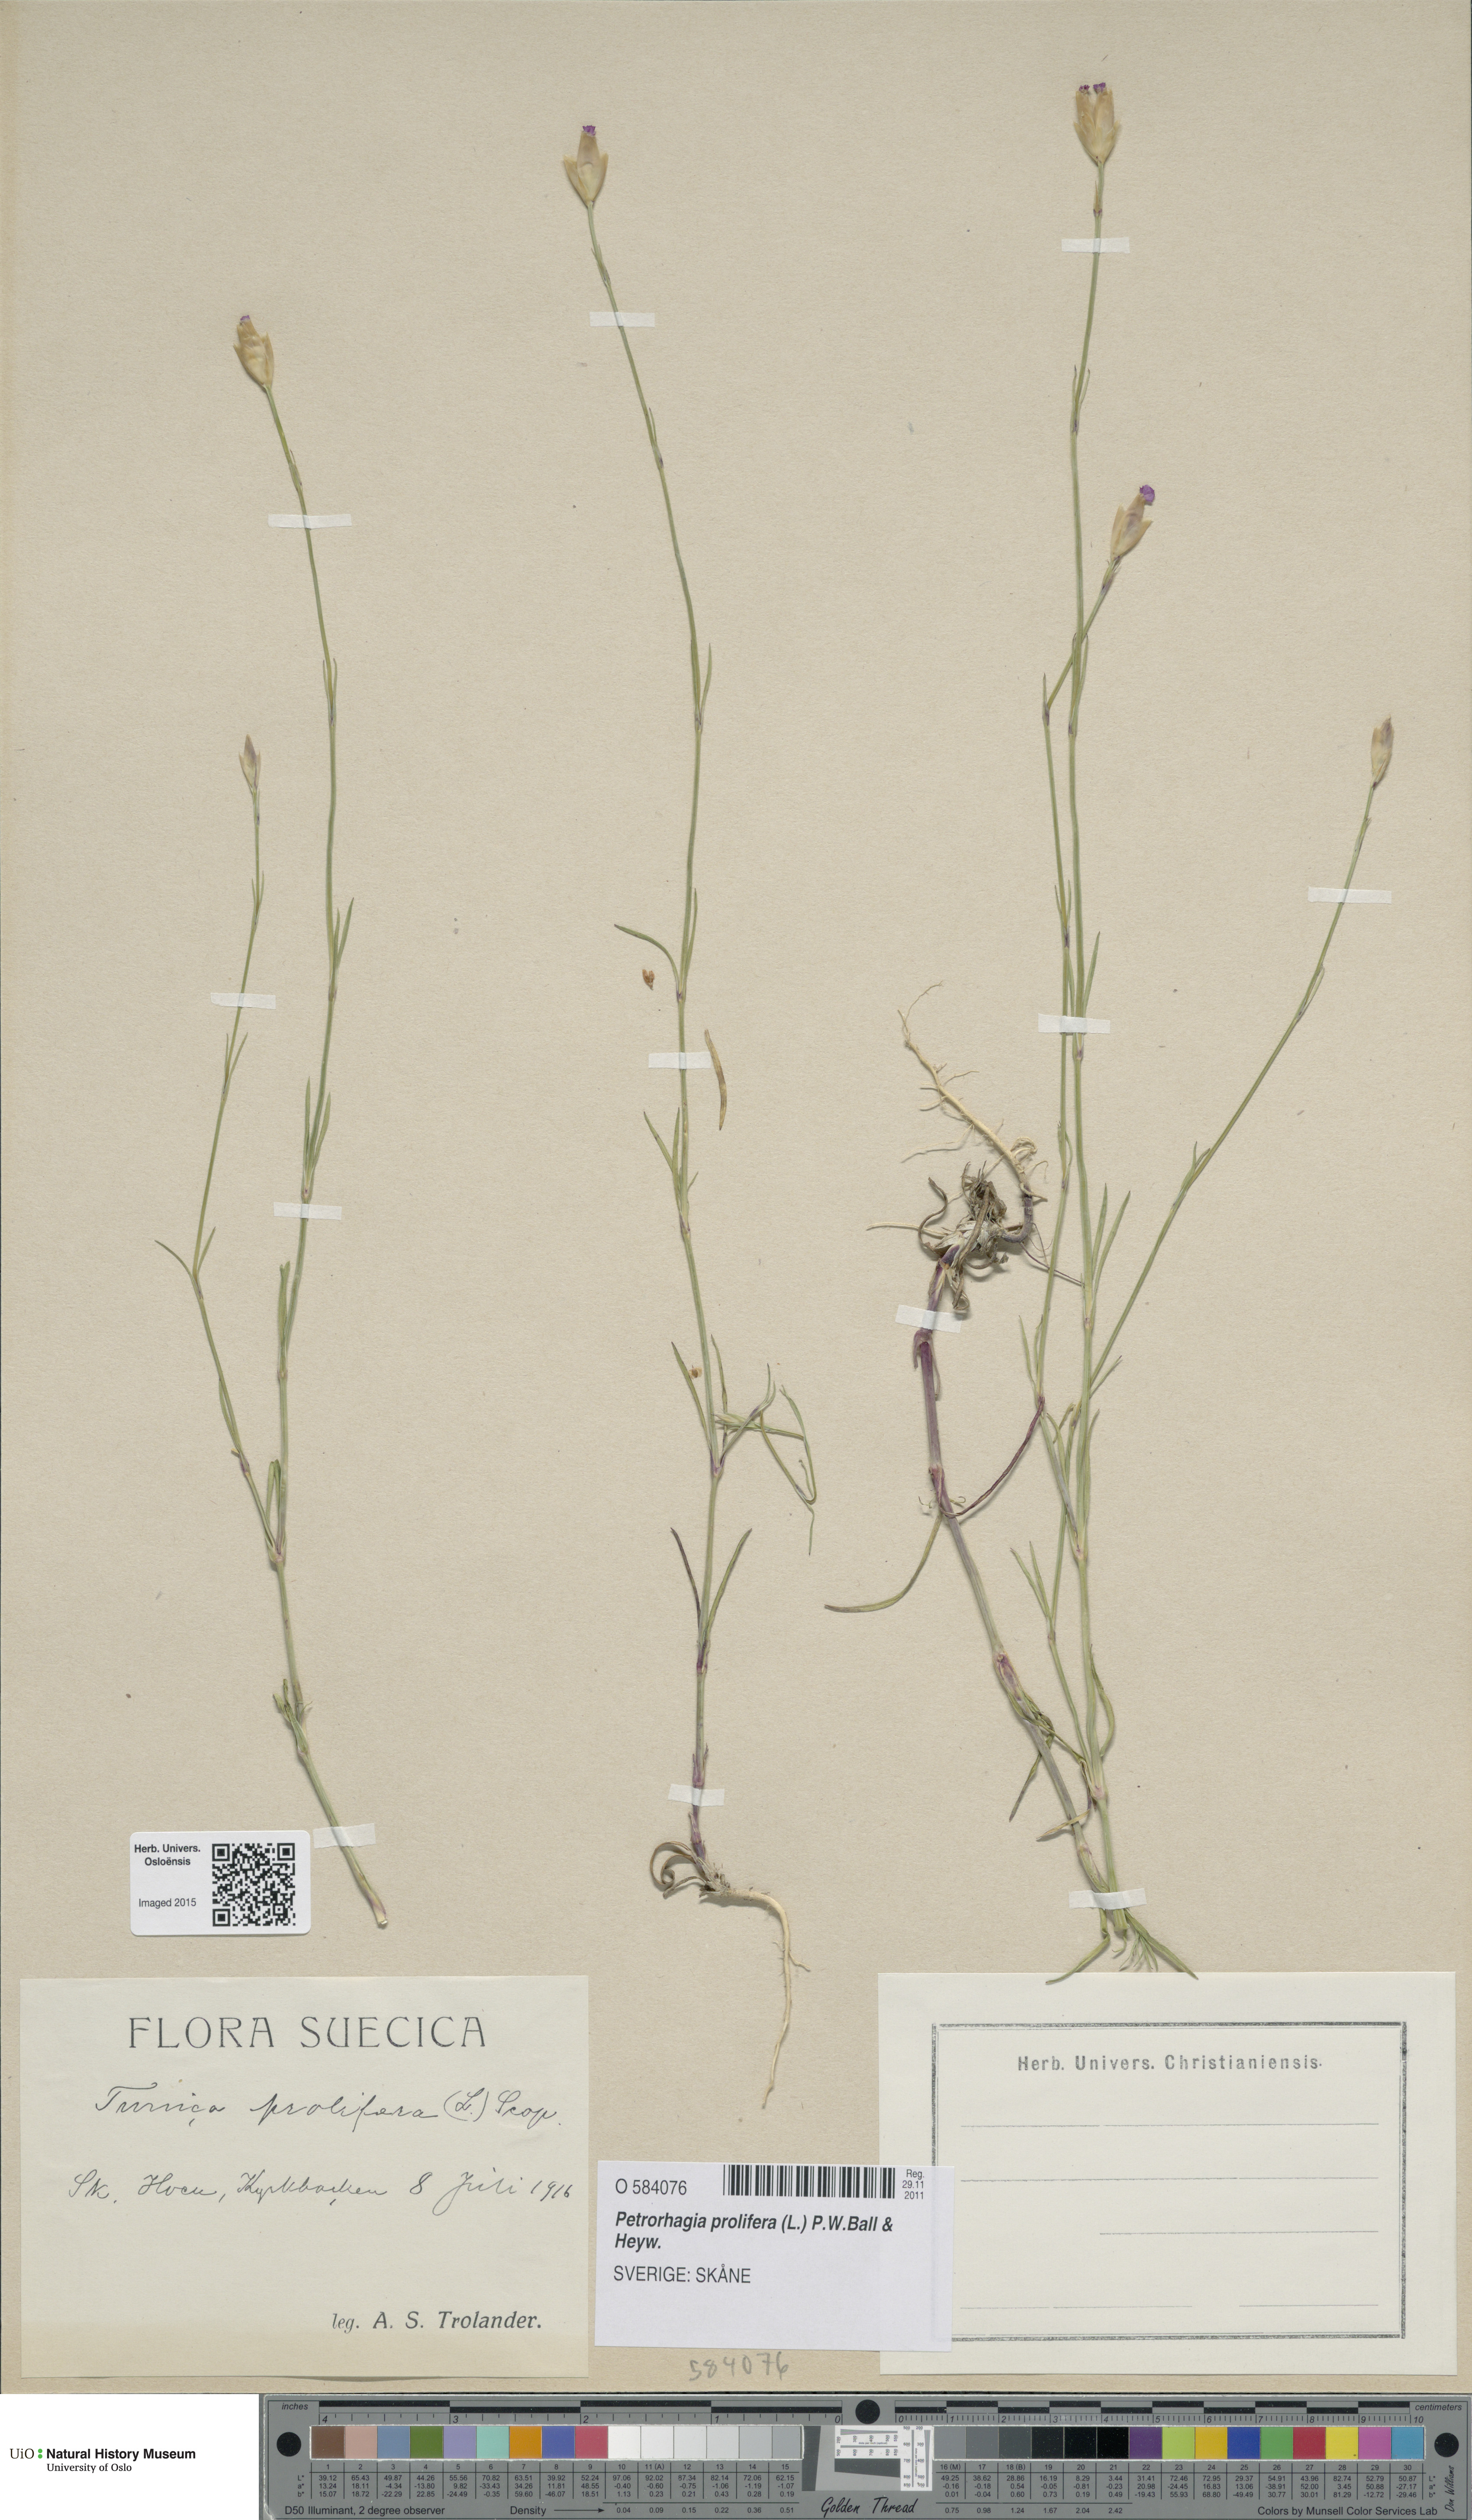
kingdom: Plantae
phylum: Tracheophyta
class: Magnoliopsida
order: Caryophyllales
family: Caryophyllaceae
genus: Petrorhagia
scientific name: Petrorhagia prolifera
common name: Proliferous pink
